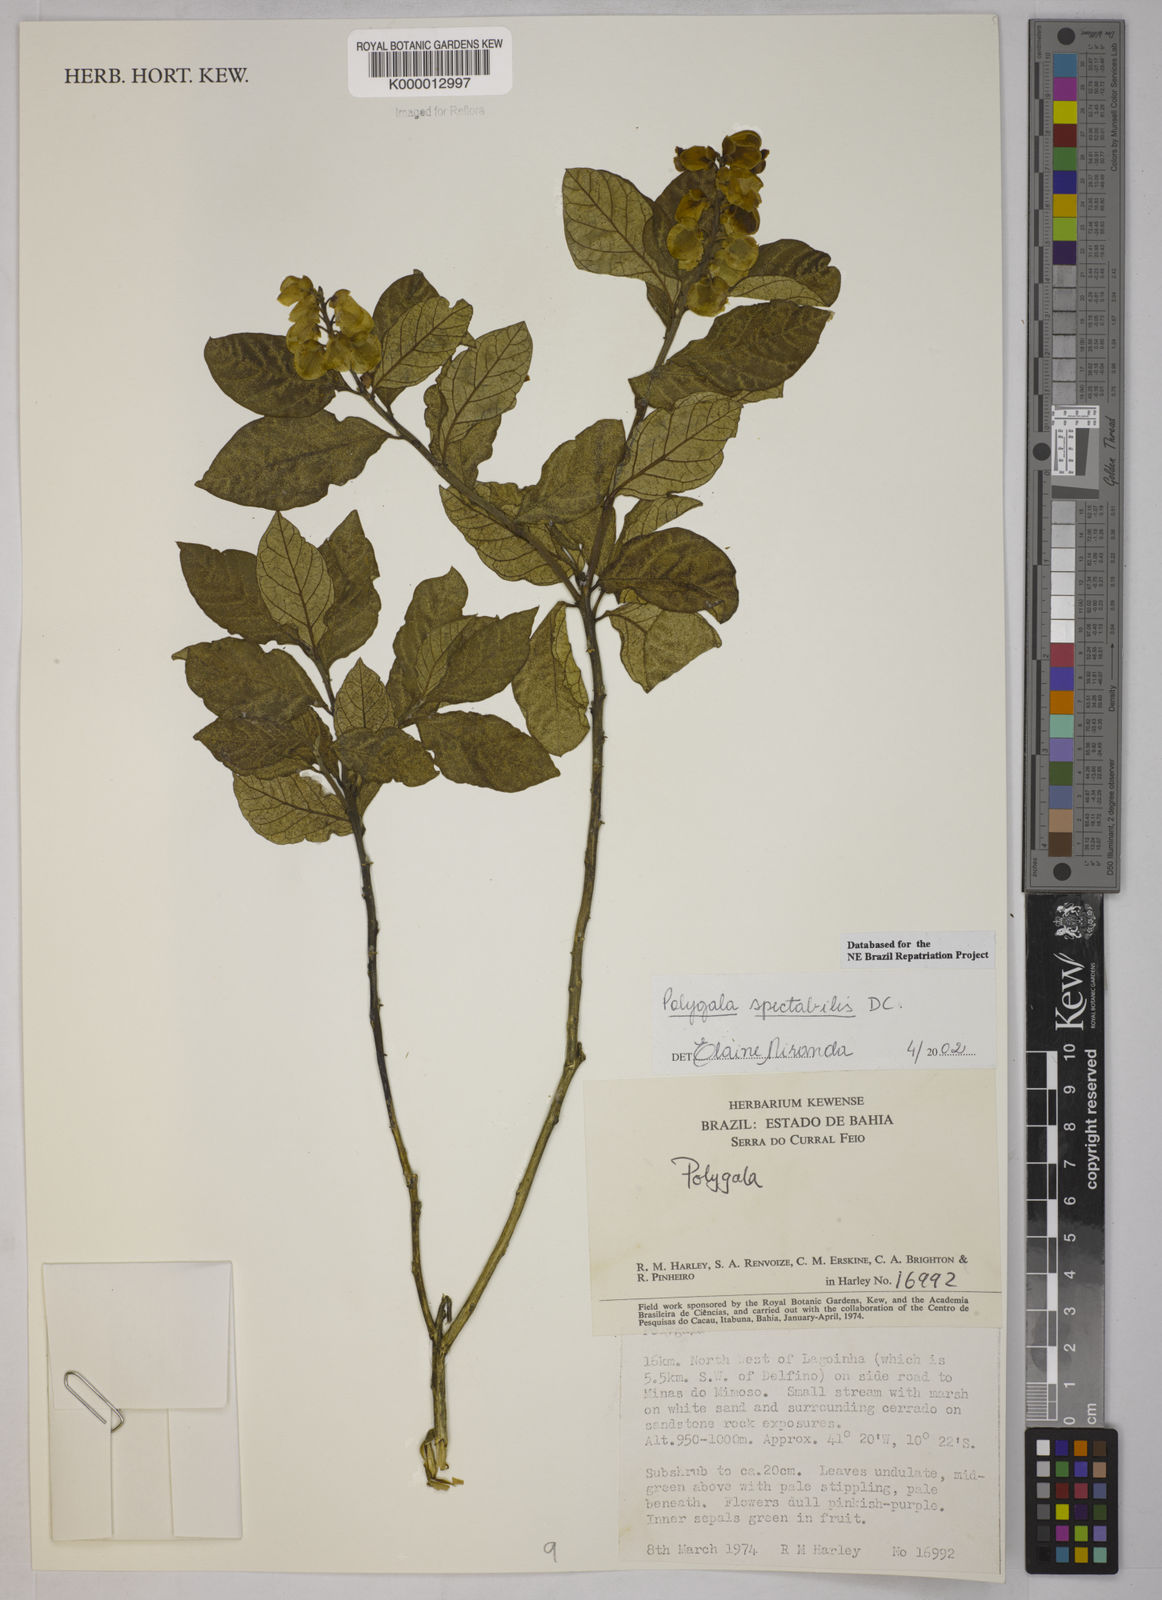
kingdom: Plantae
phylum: Tracheophyta
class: Magnoliopsida
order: Fabales
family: Polygalaceae
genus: Caamembeca
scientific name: Caamembeca spectabilis
